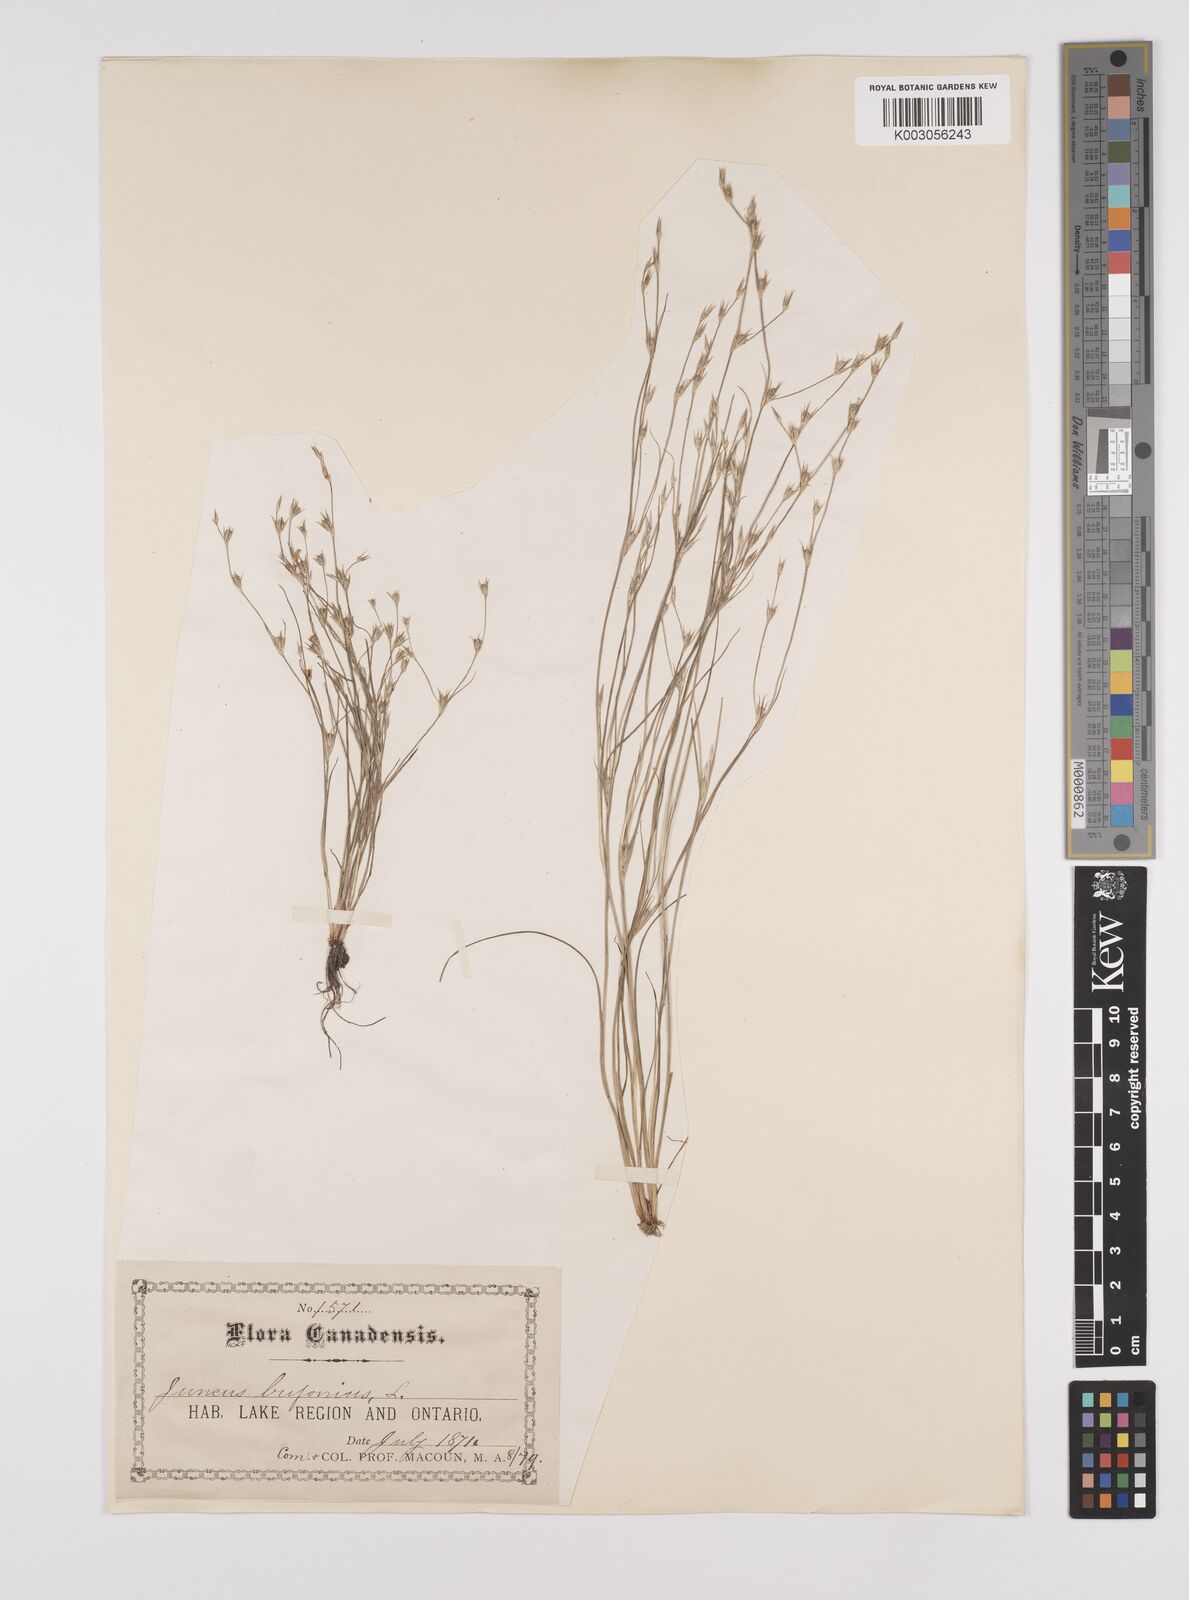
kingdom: Plantae
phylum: Tracheophyta
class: Liliopsida
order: Poales
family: Juncaceae
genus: Juncus
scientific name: Juncus bufonius
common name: Toad rush
